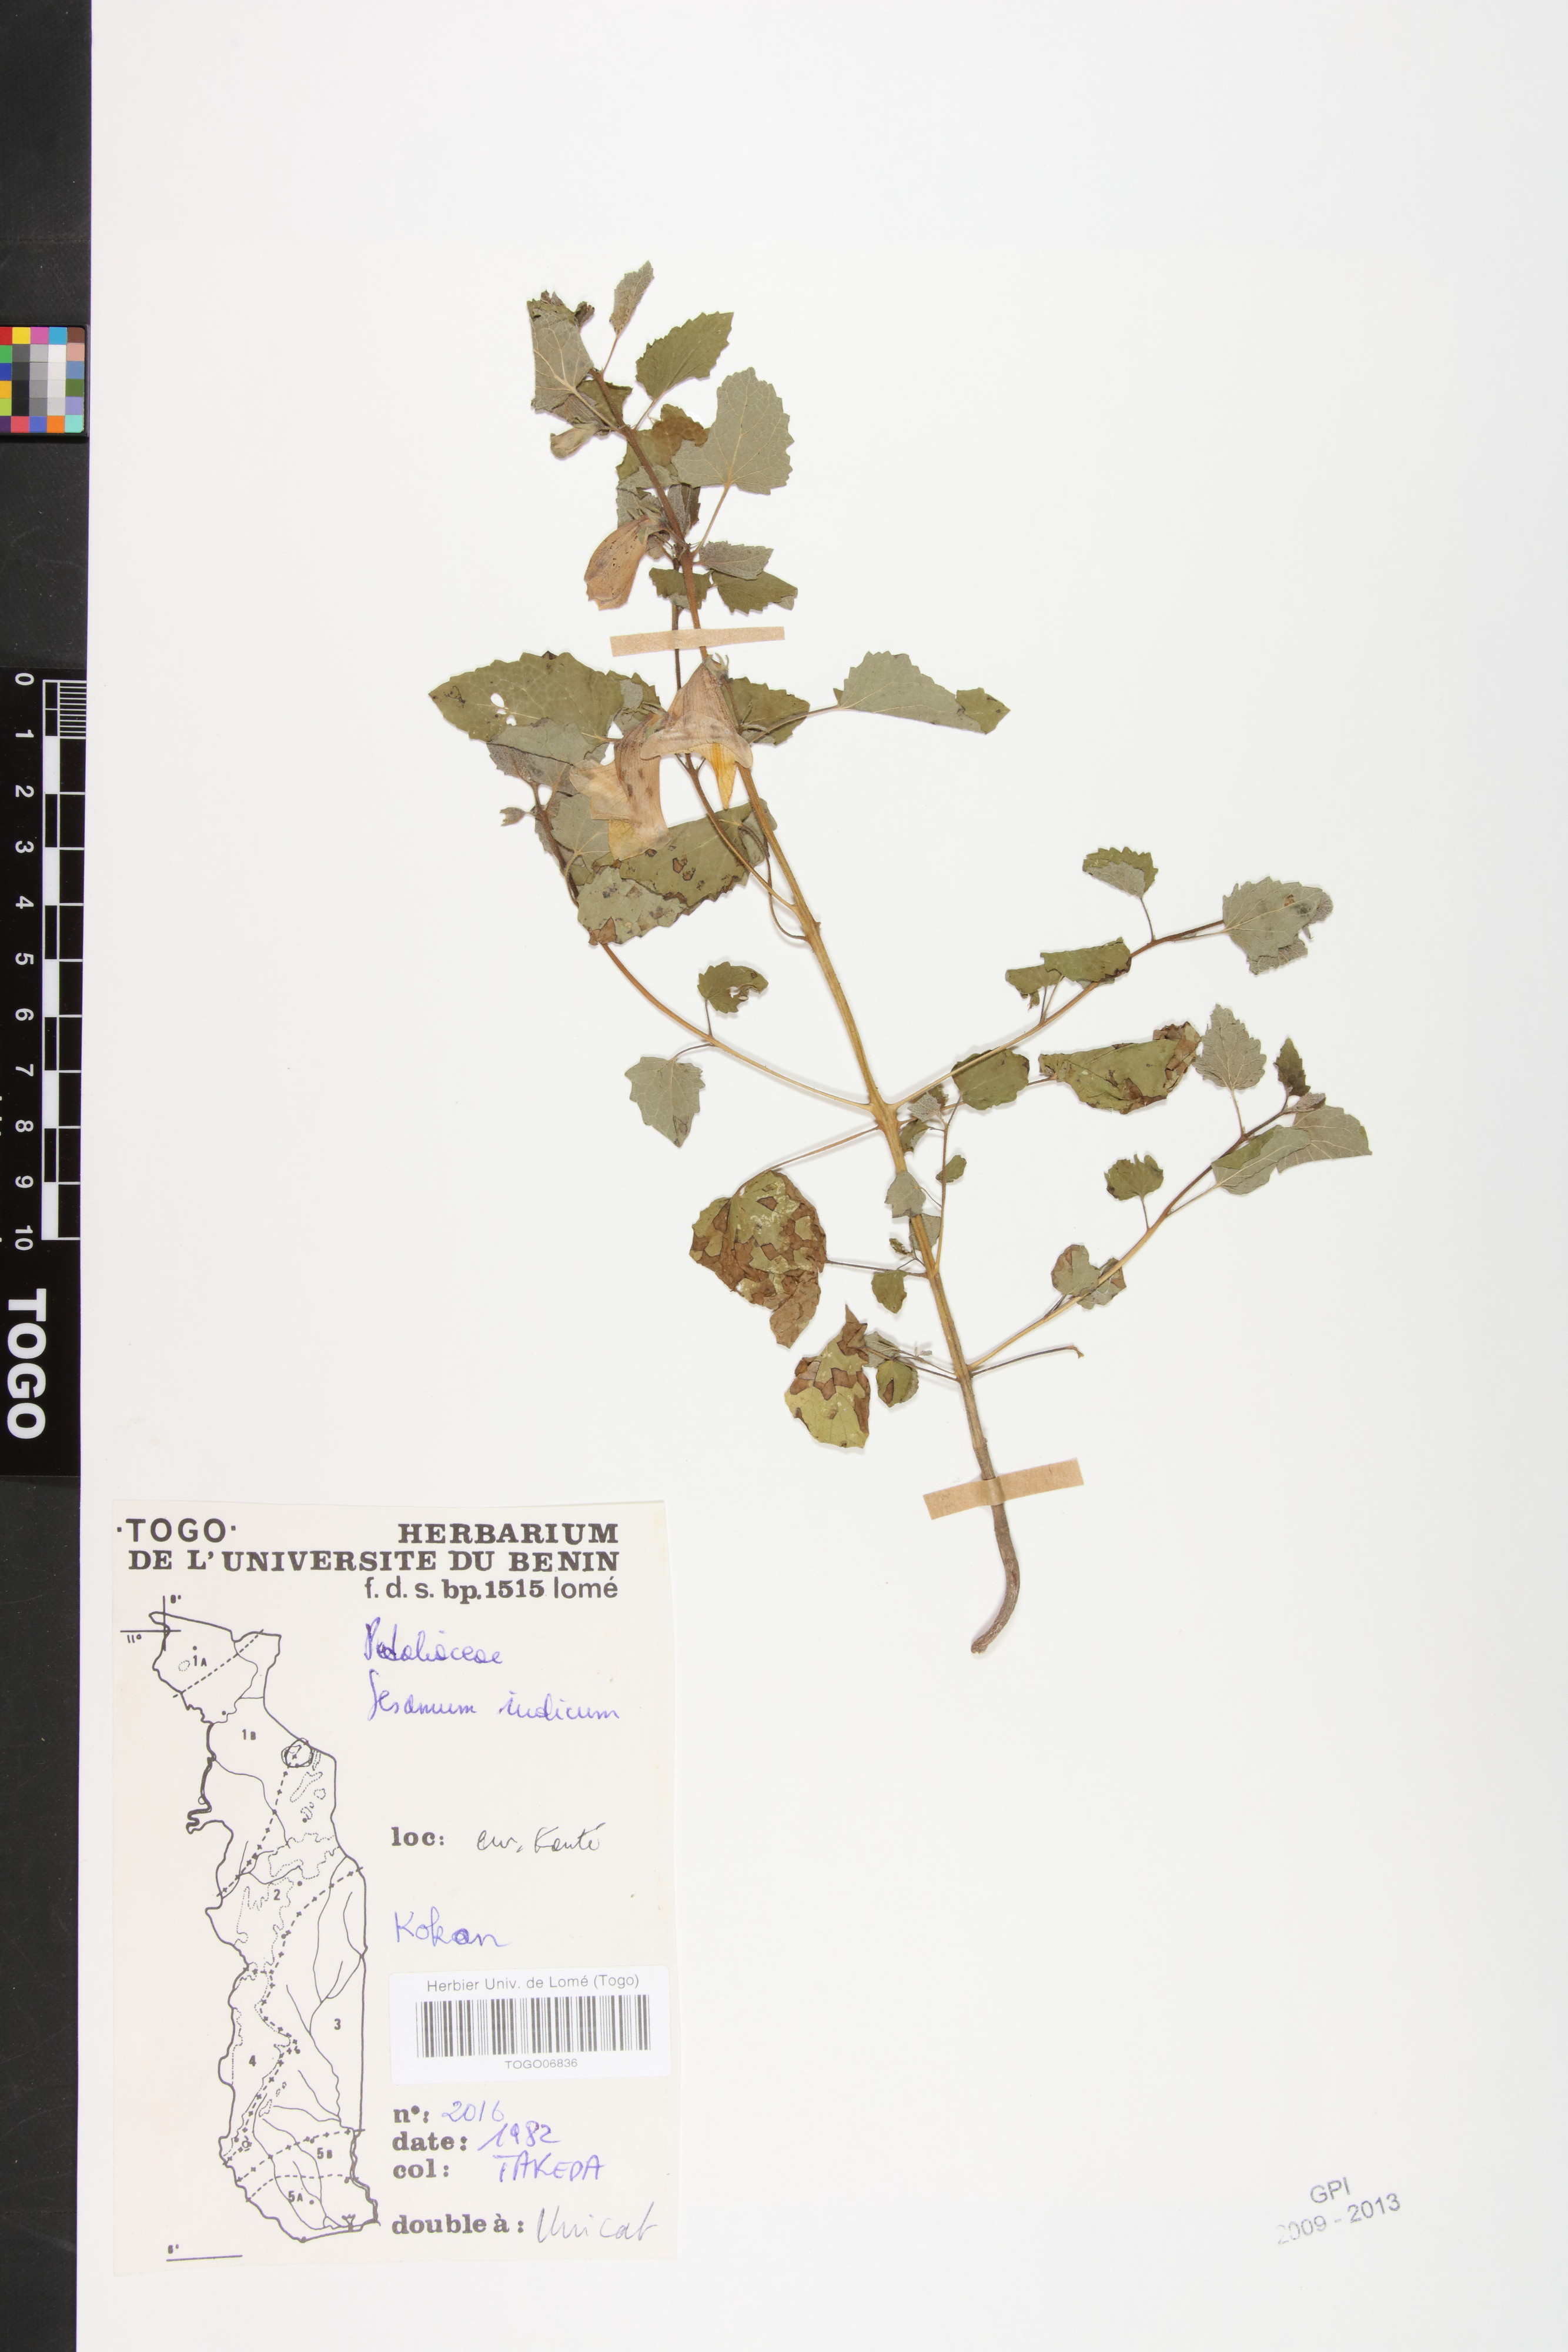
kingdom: Plantae
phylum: Tracheophyta
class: Magnoliopsida
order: Lamiales
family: Pedaliaceae
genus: Sesamum
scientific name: Sesamum indicum
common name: Sesame
